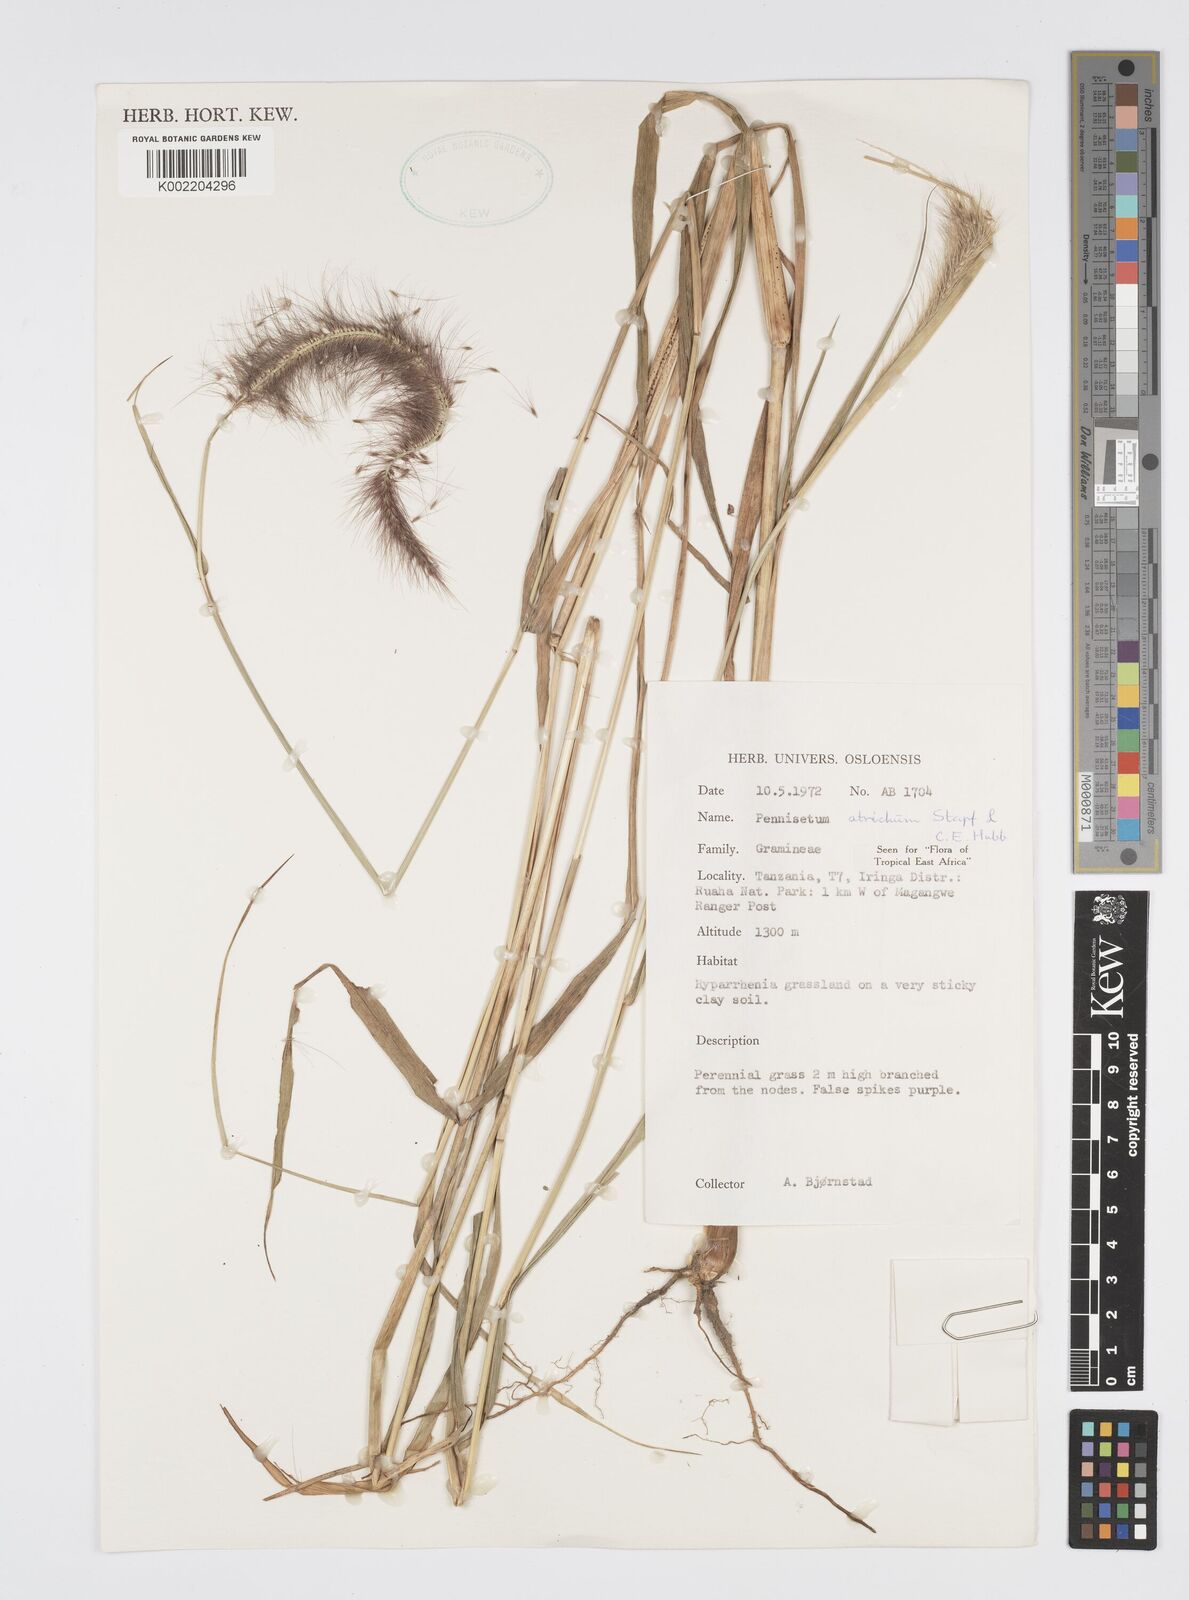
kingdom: Plantae
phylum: Tracheophyta
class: Liliopsida
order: Poales
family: Poaceae
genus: Setaria
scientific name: Setaria parviflora
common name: Knotroot bristle-grass
